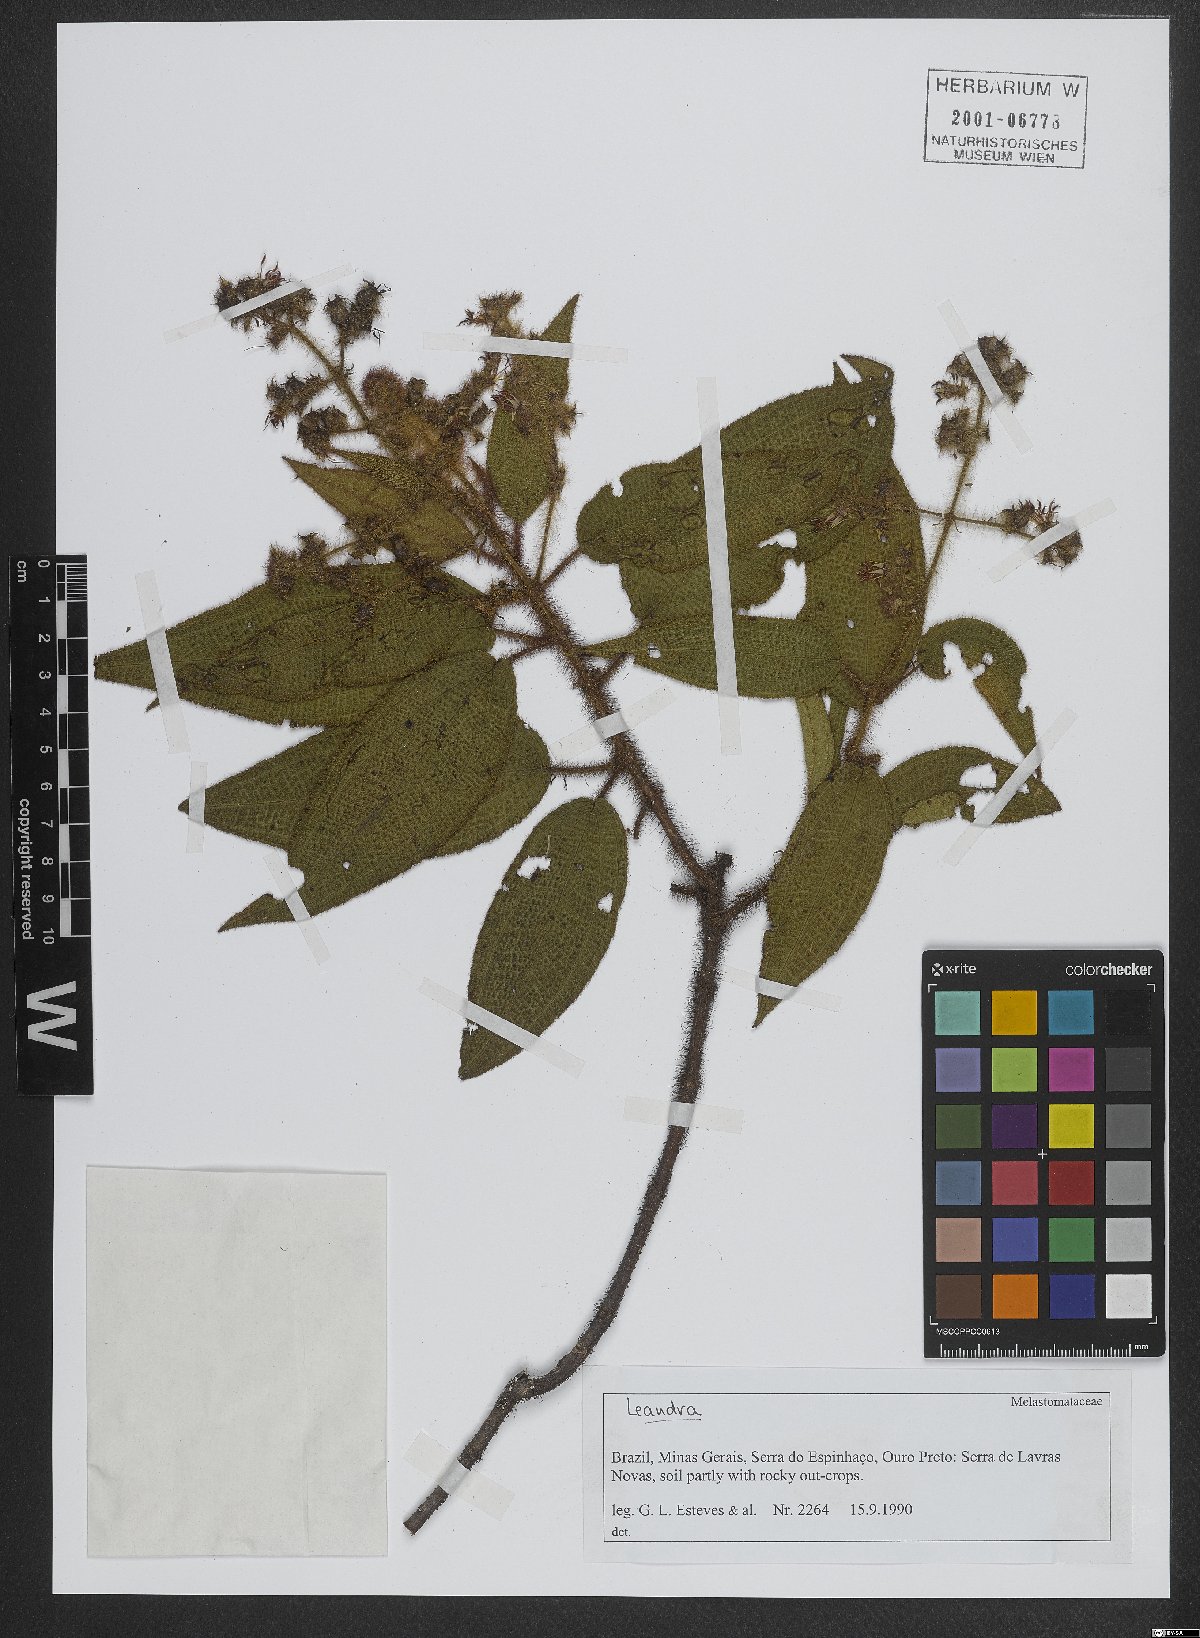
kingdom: Plantae
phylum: Tracheophyta
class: Magnoliopsida
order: Myrtales
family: Melastomataceae
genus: Miconia
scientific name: Miconia
